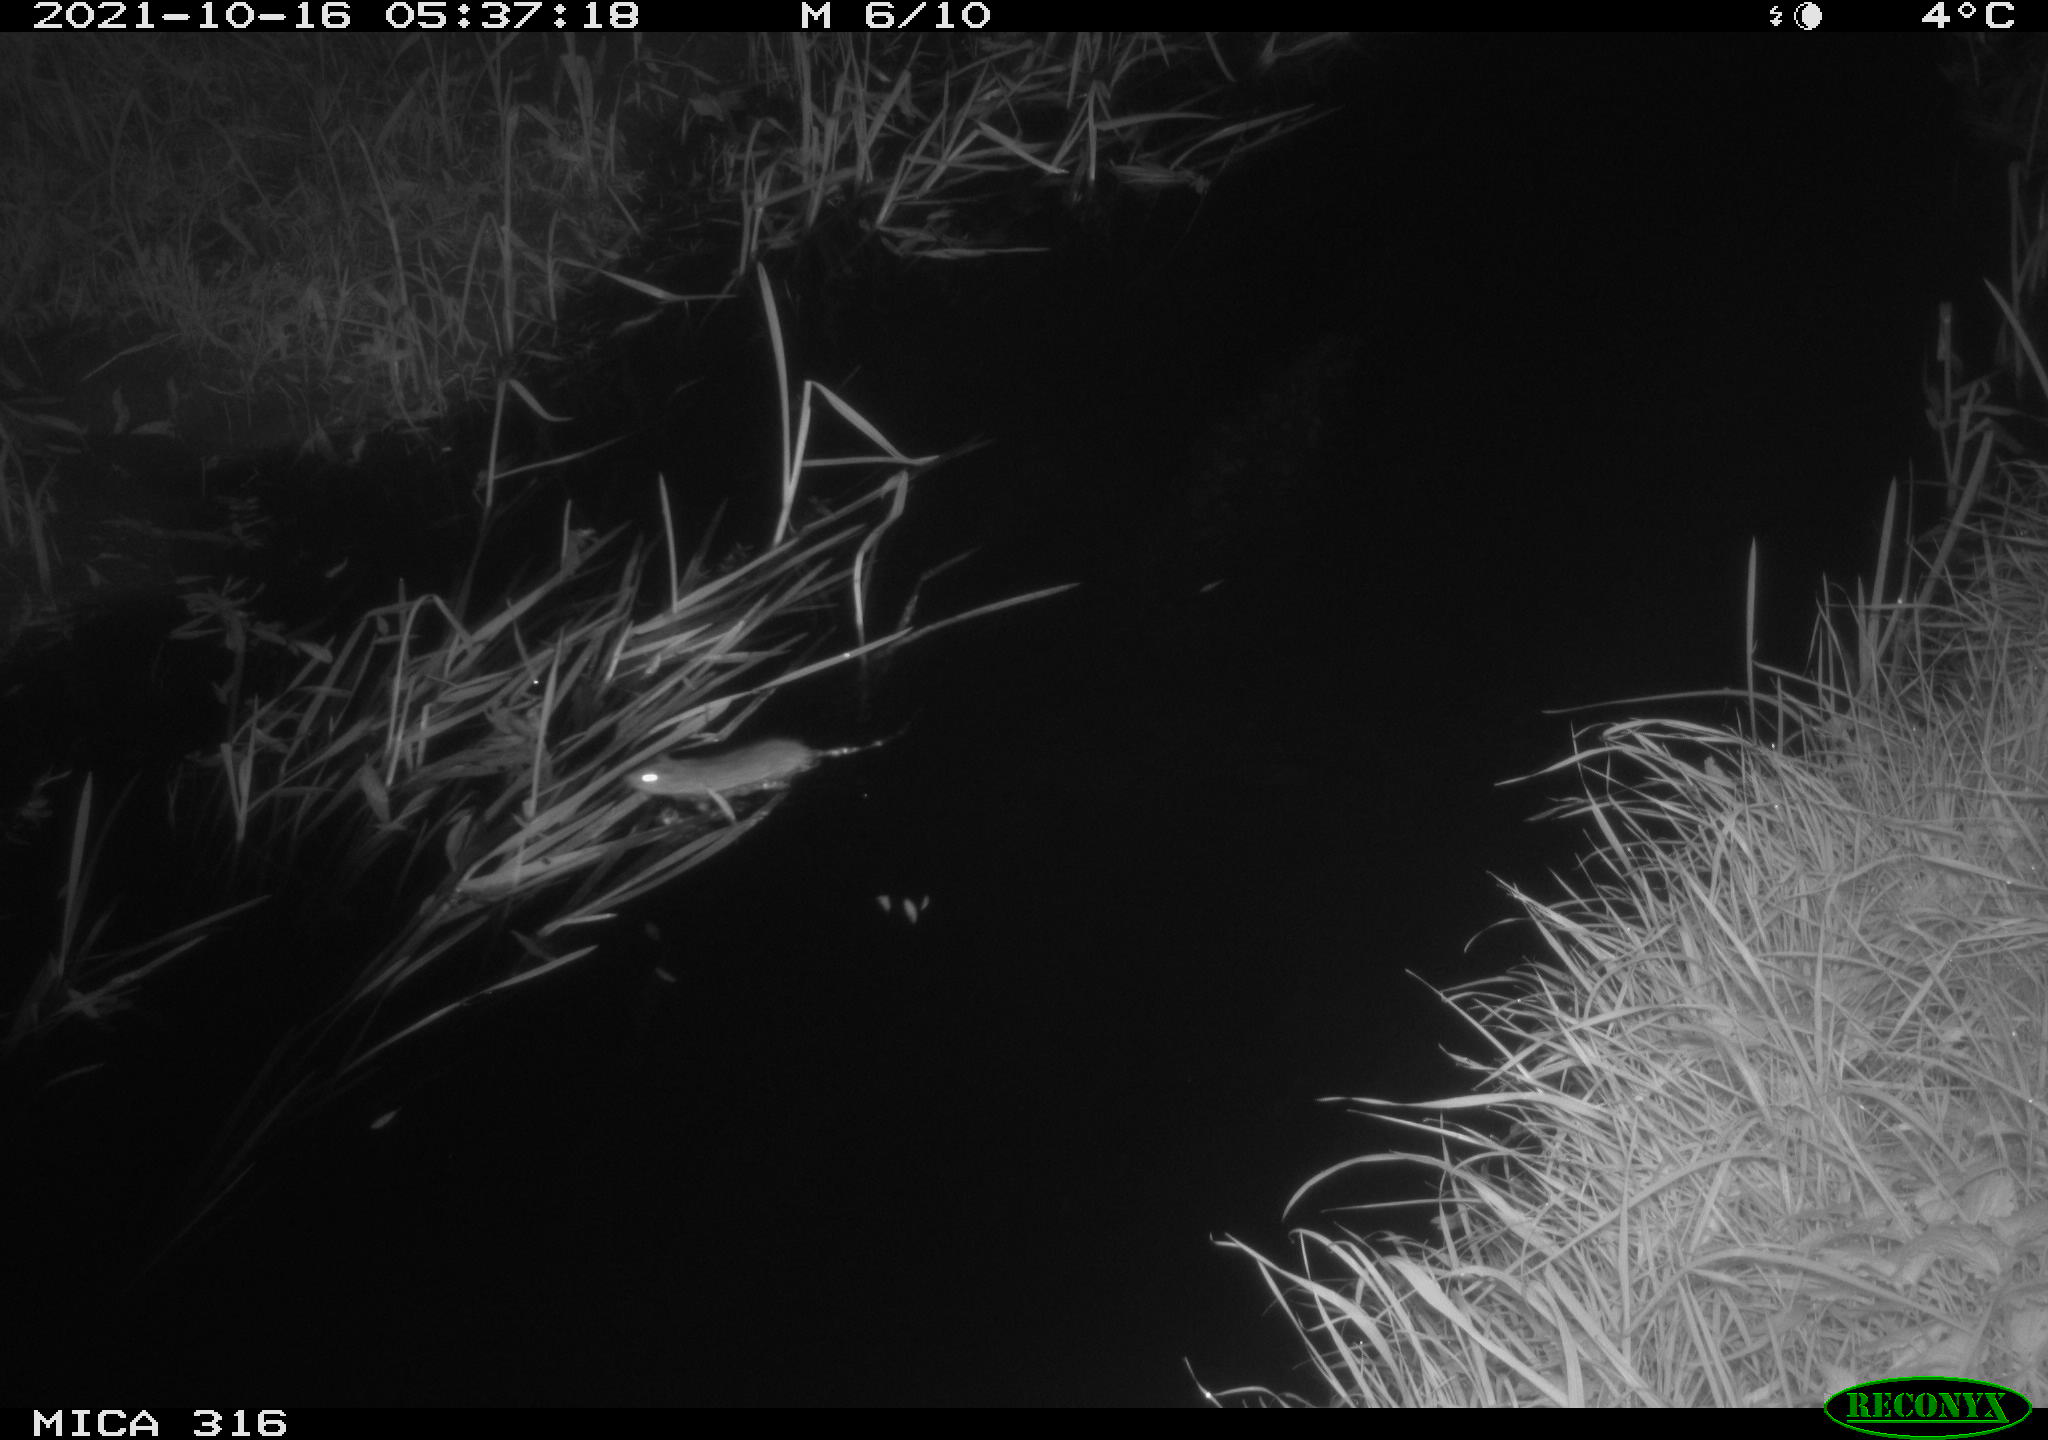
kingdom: Animalia
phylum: Chordata
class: Mammalia
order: Rodentia
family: Muridae
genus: Rattus
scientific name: Rattus norvegicus
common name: Brown rat
